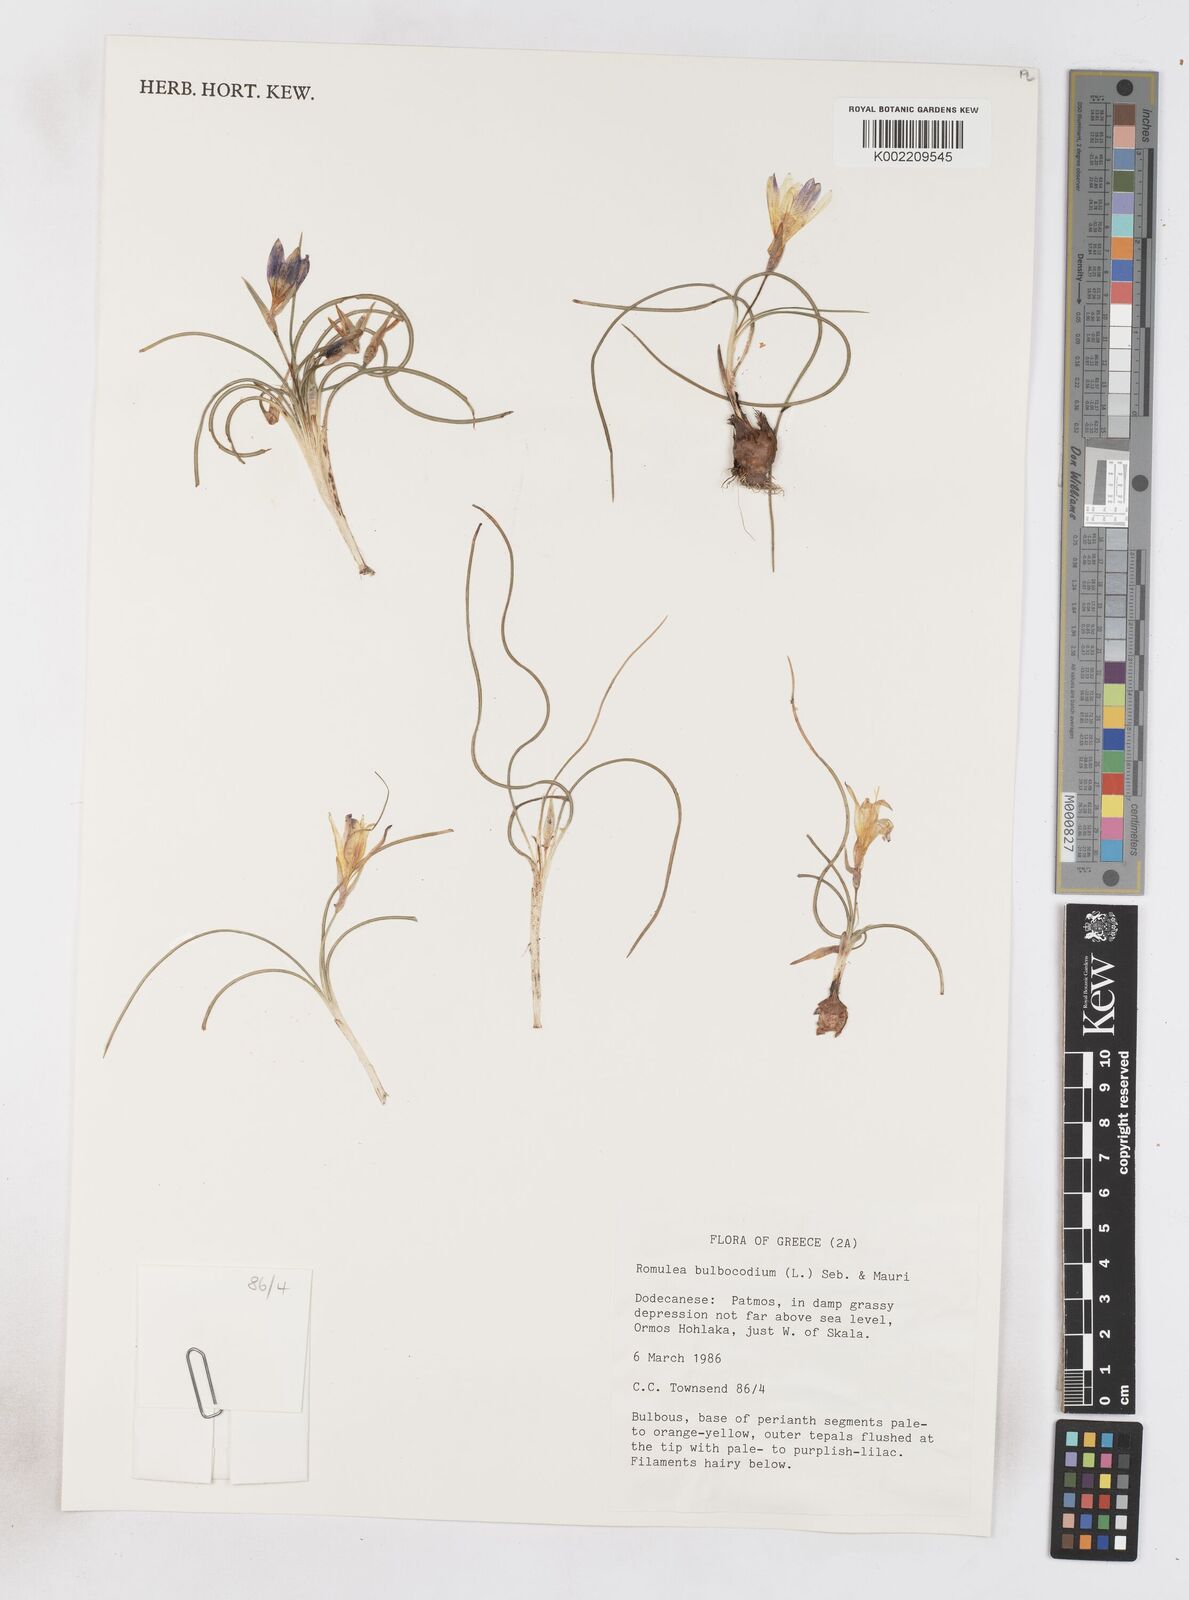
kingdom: Plantae
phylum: Tracheophyta
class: Liliopsida
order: Asparagales
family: Iridaceae
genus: Romulea
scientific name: Romulea bulbocodium
